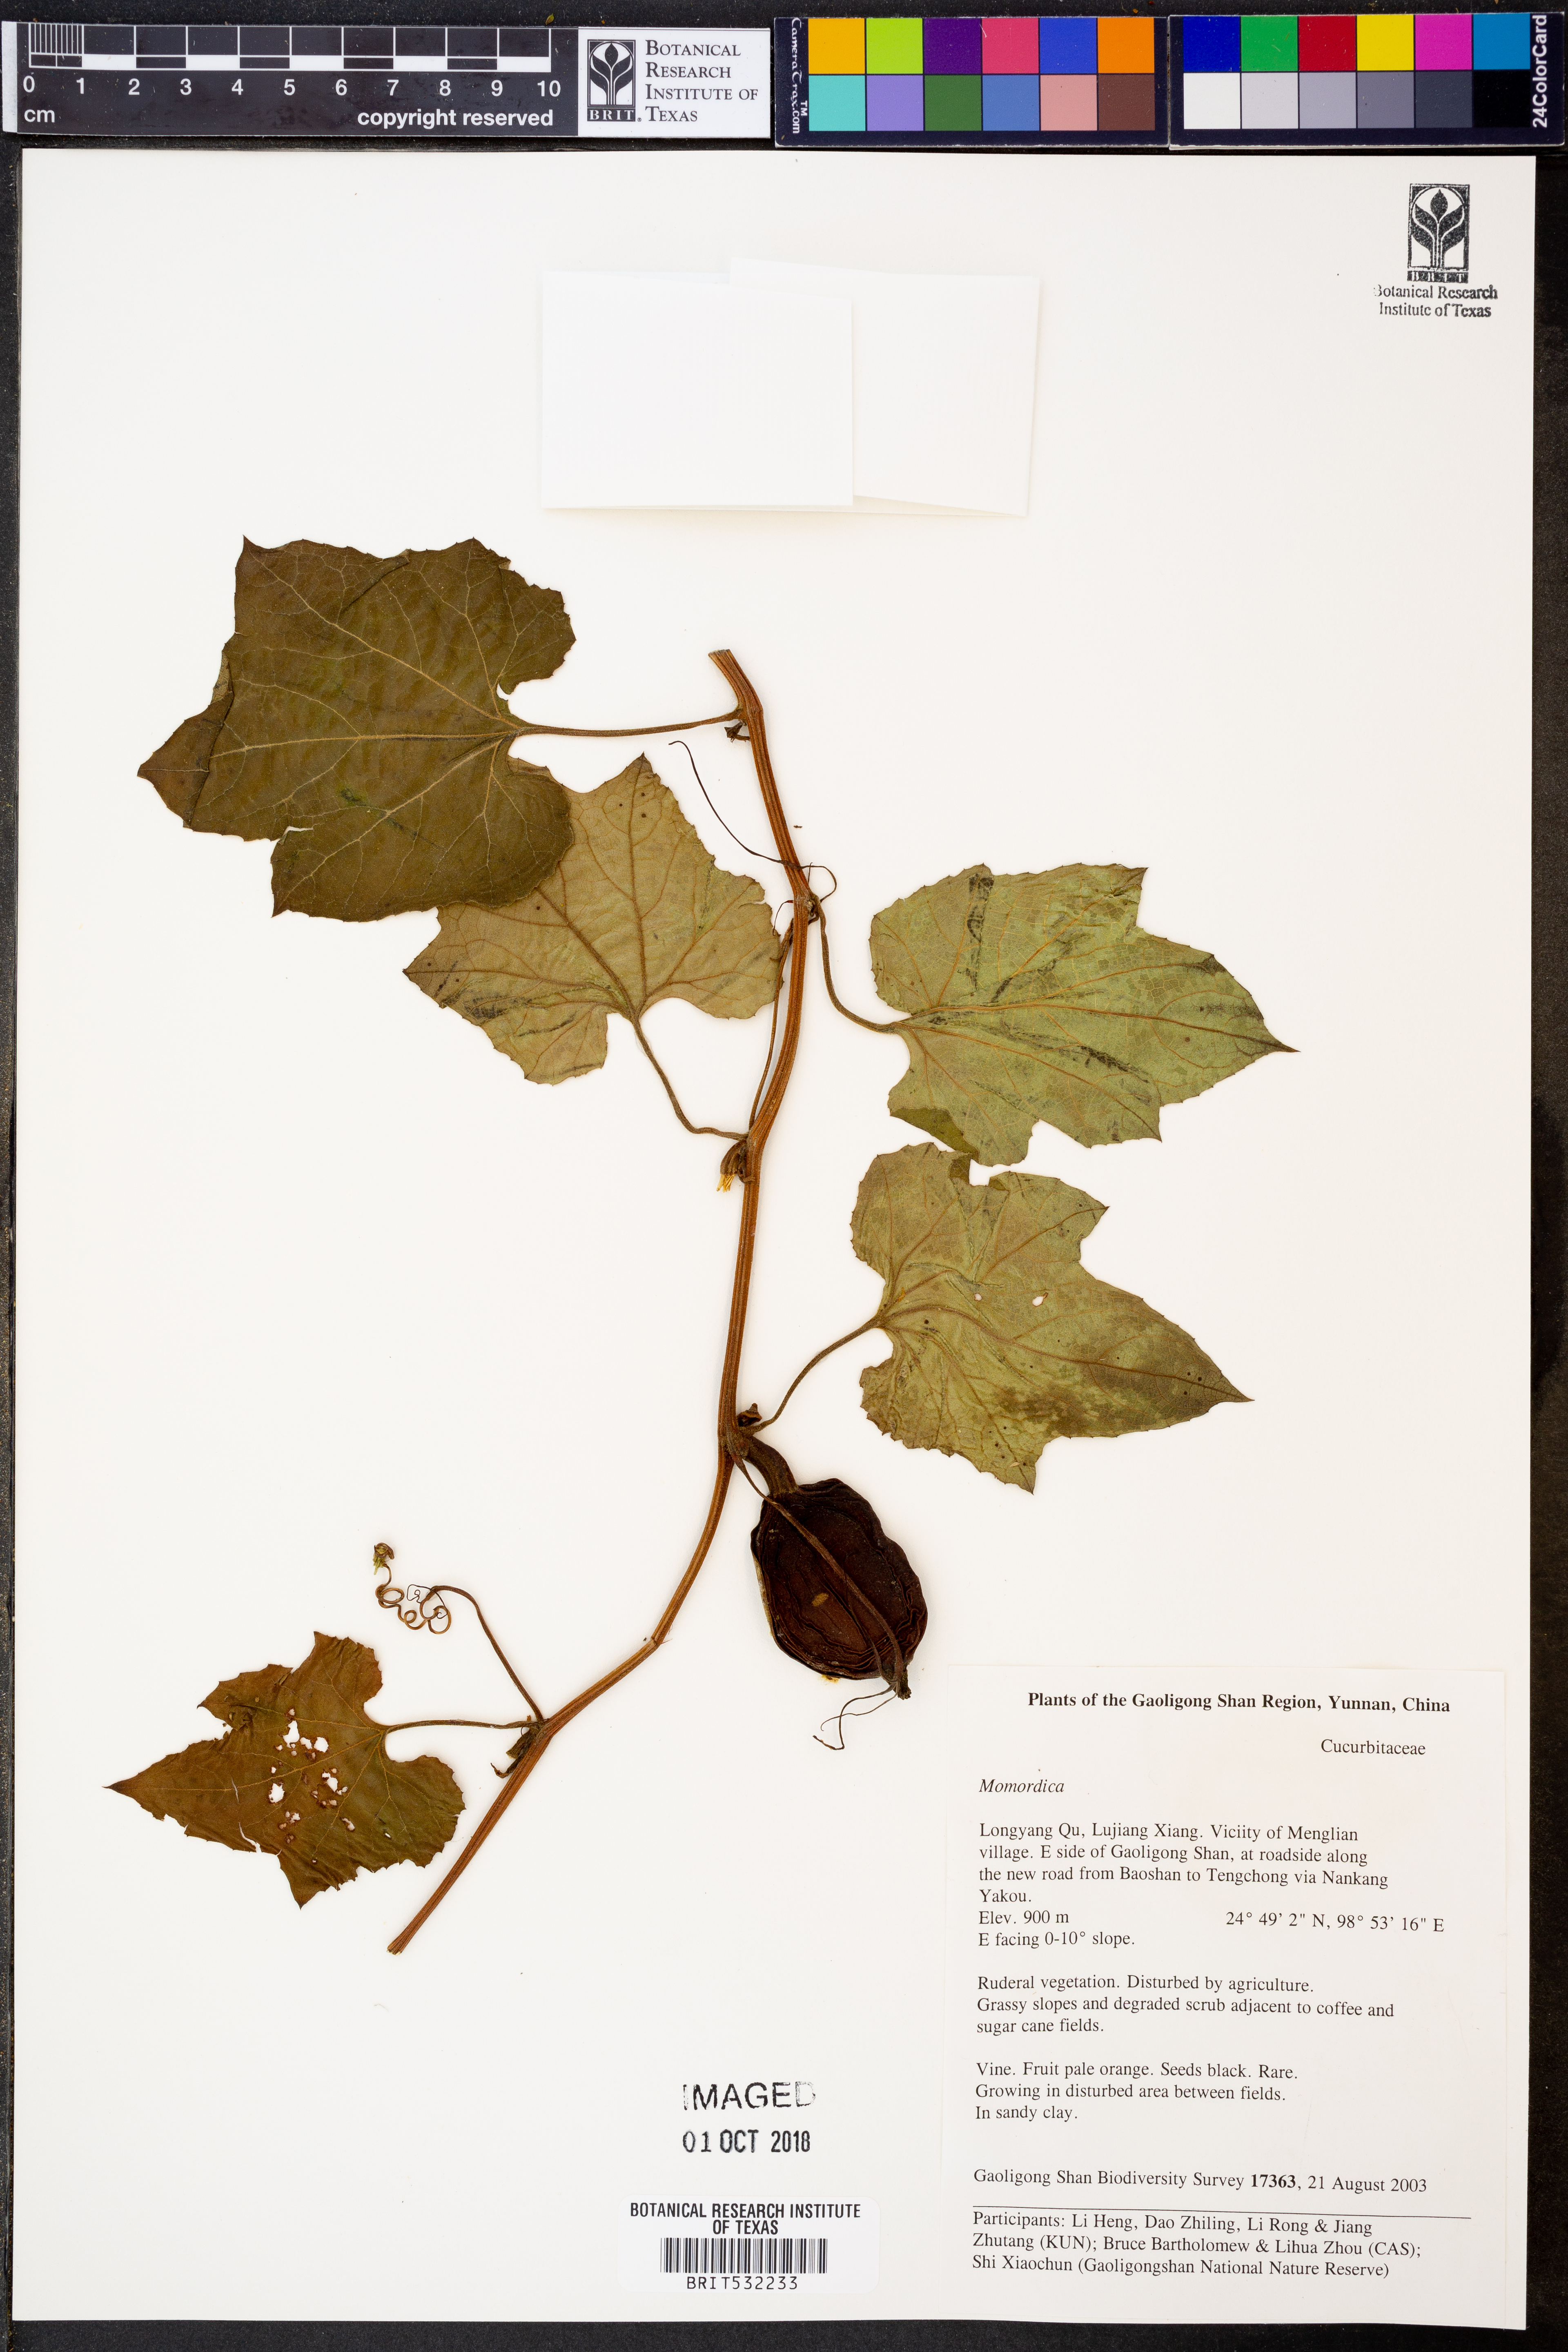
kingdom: Plantae
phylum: Tracheophyta
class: Magnoliopsida
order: Cucurbitales
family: Cucurbitaceae
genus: Trichosanthes
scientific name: Trichosanthes
